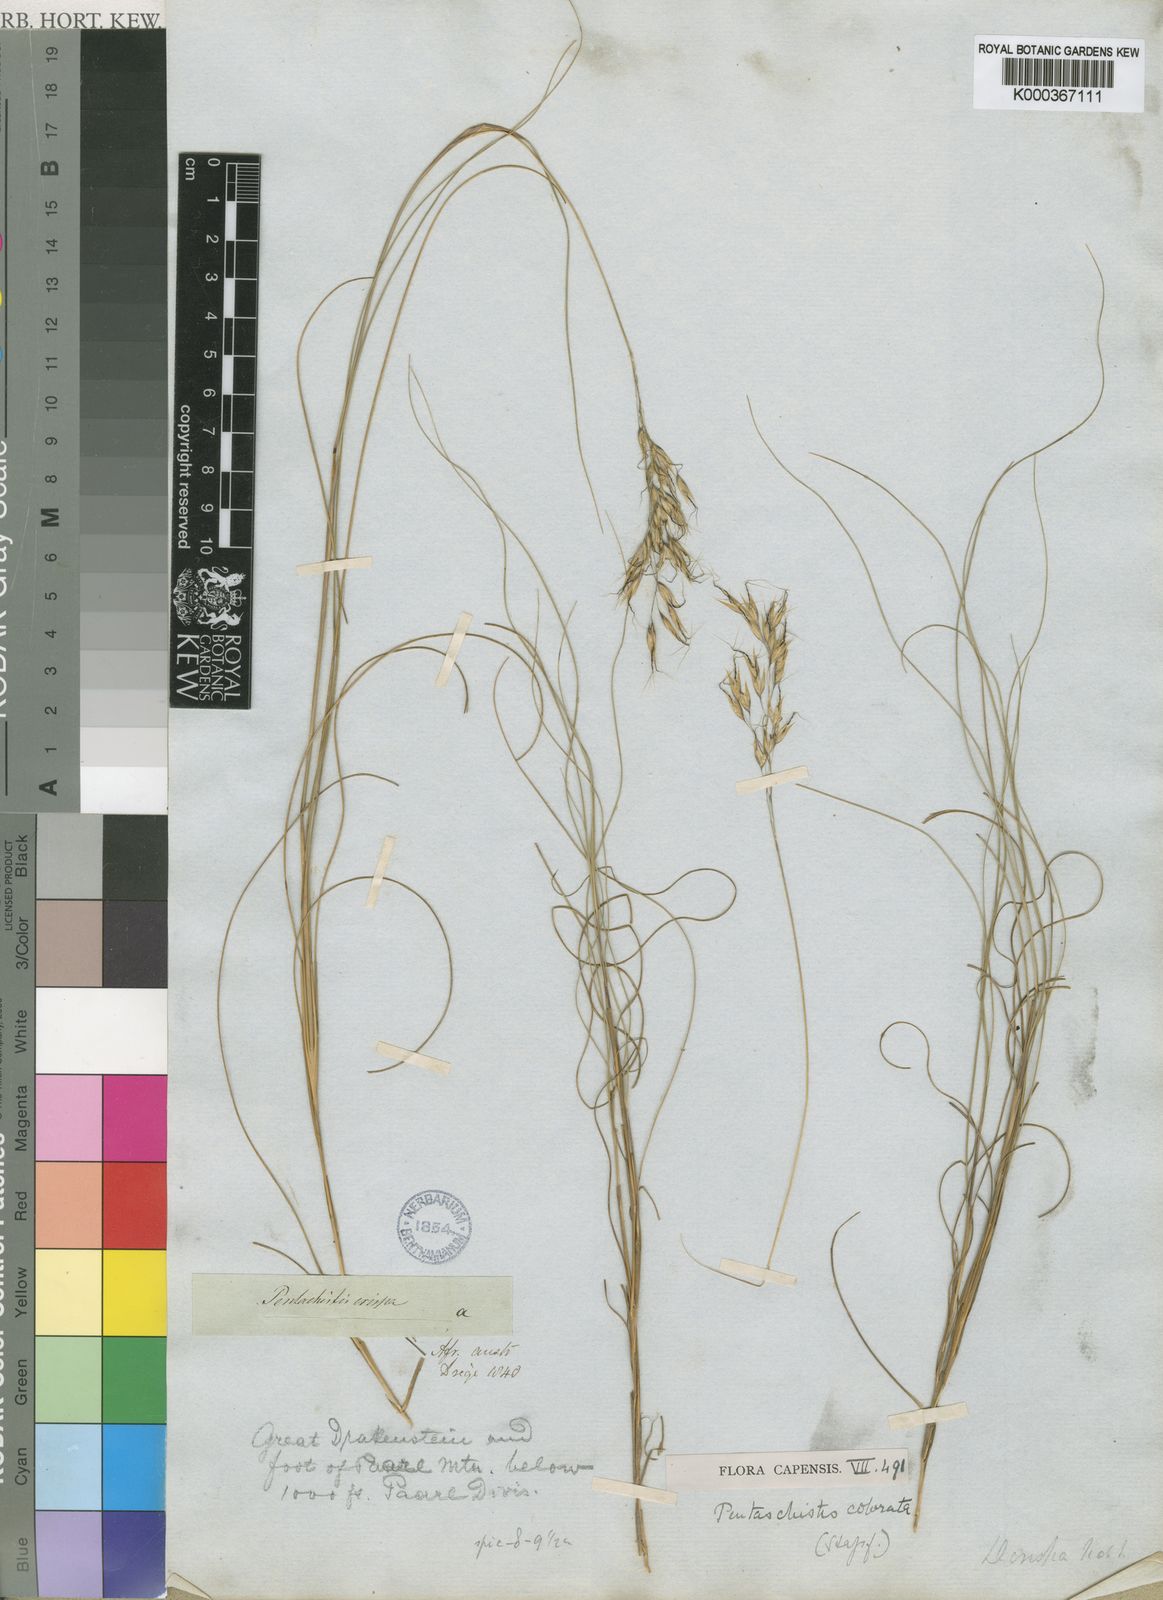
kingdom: Plantae
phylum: Tracheophyta
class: Liliopsida
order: Poales
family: Poaceae
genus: Pentameris
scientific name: Pentameris colorata
